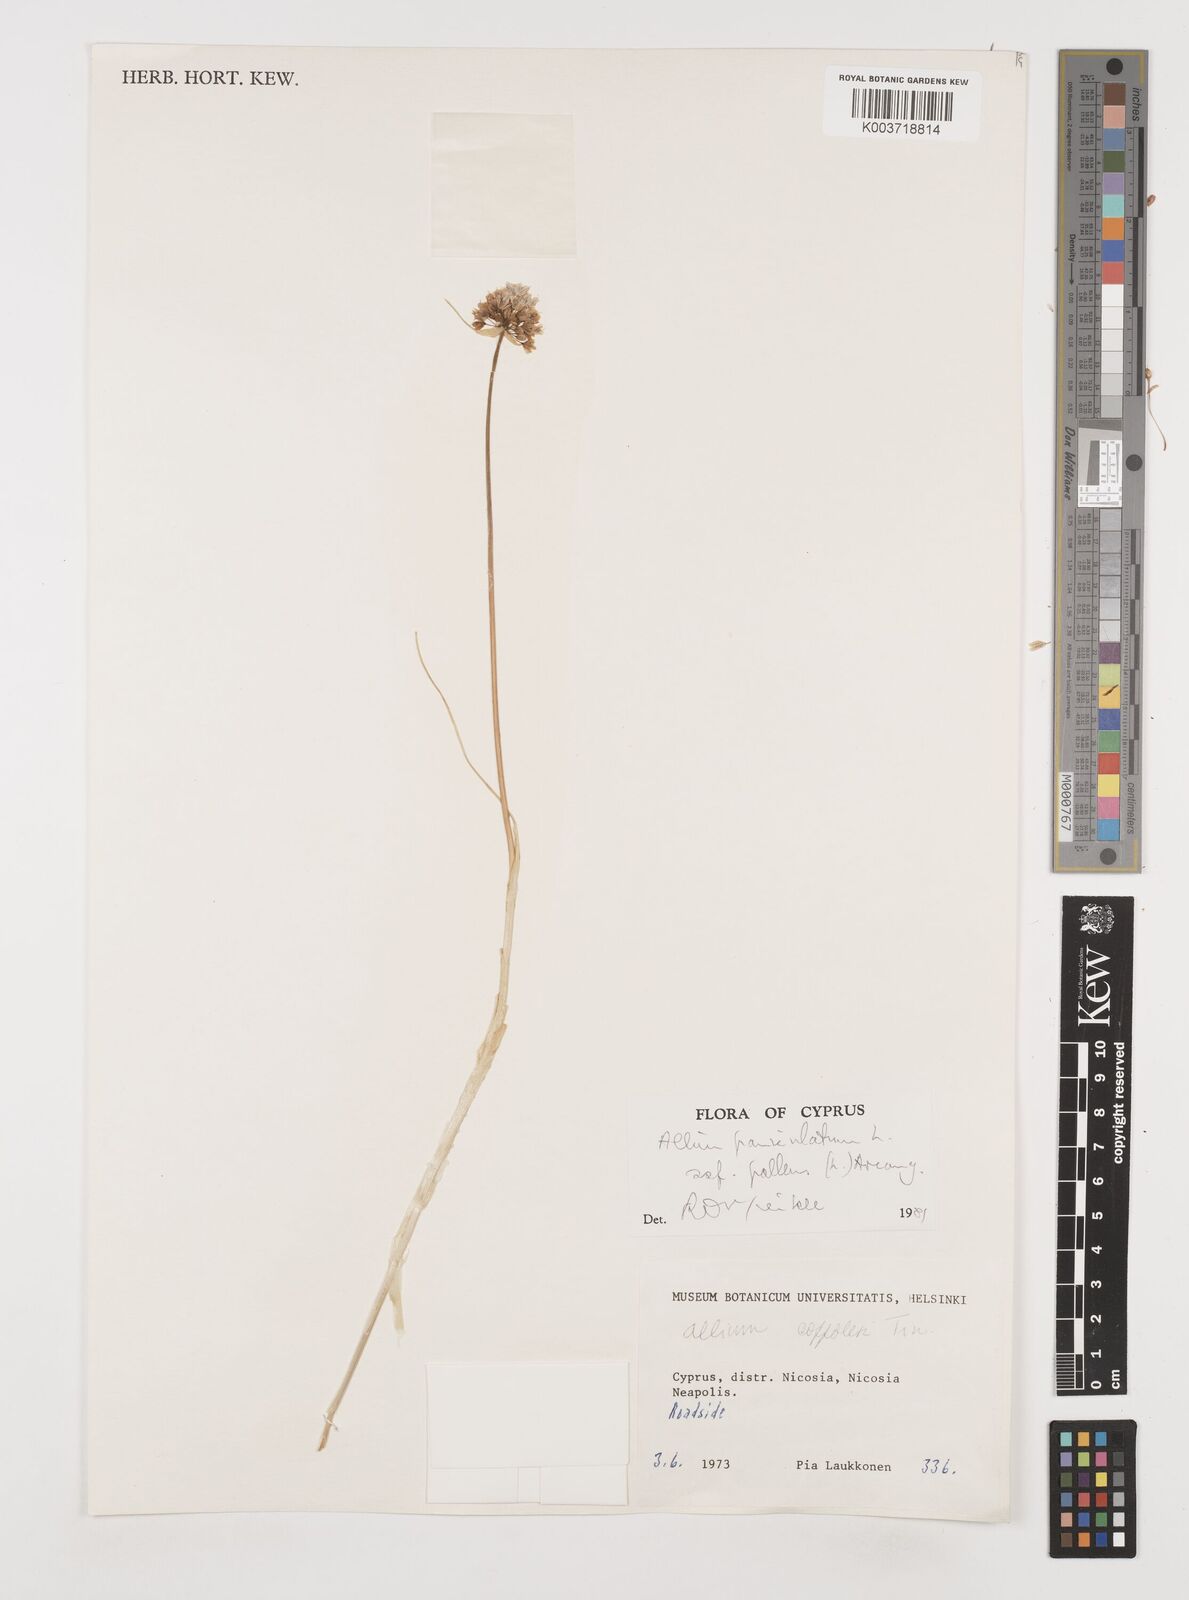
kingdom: Plantae
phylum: Tracheophyta
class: Liliopsida
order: Asparagales
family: Amaryllidaceae
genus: Allium
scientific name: Allium paniculatum
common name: Pale garlic
